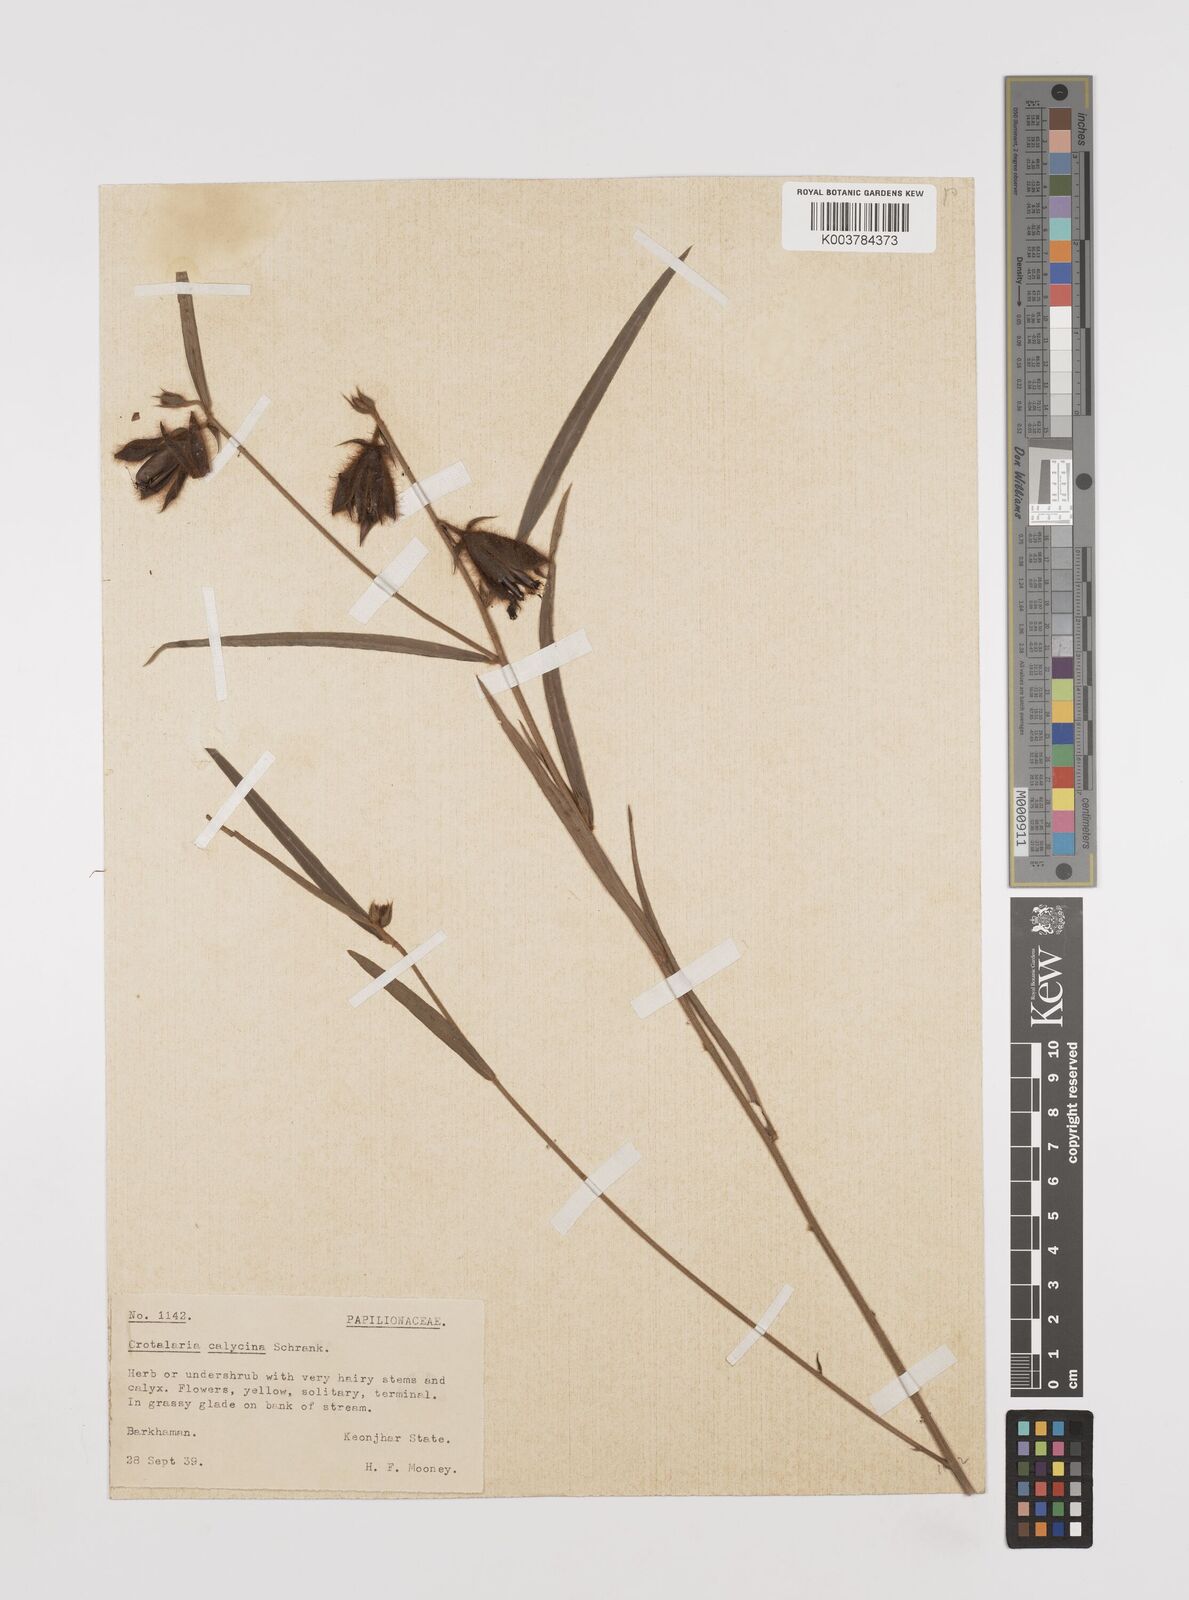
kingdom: Plantae
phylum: Tracheophyta
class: Magnoliopsida
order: Fabales
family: Fabaceae
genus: Crotalaria
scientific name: Crotalaria calycina
